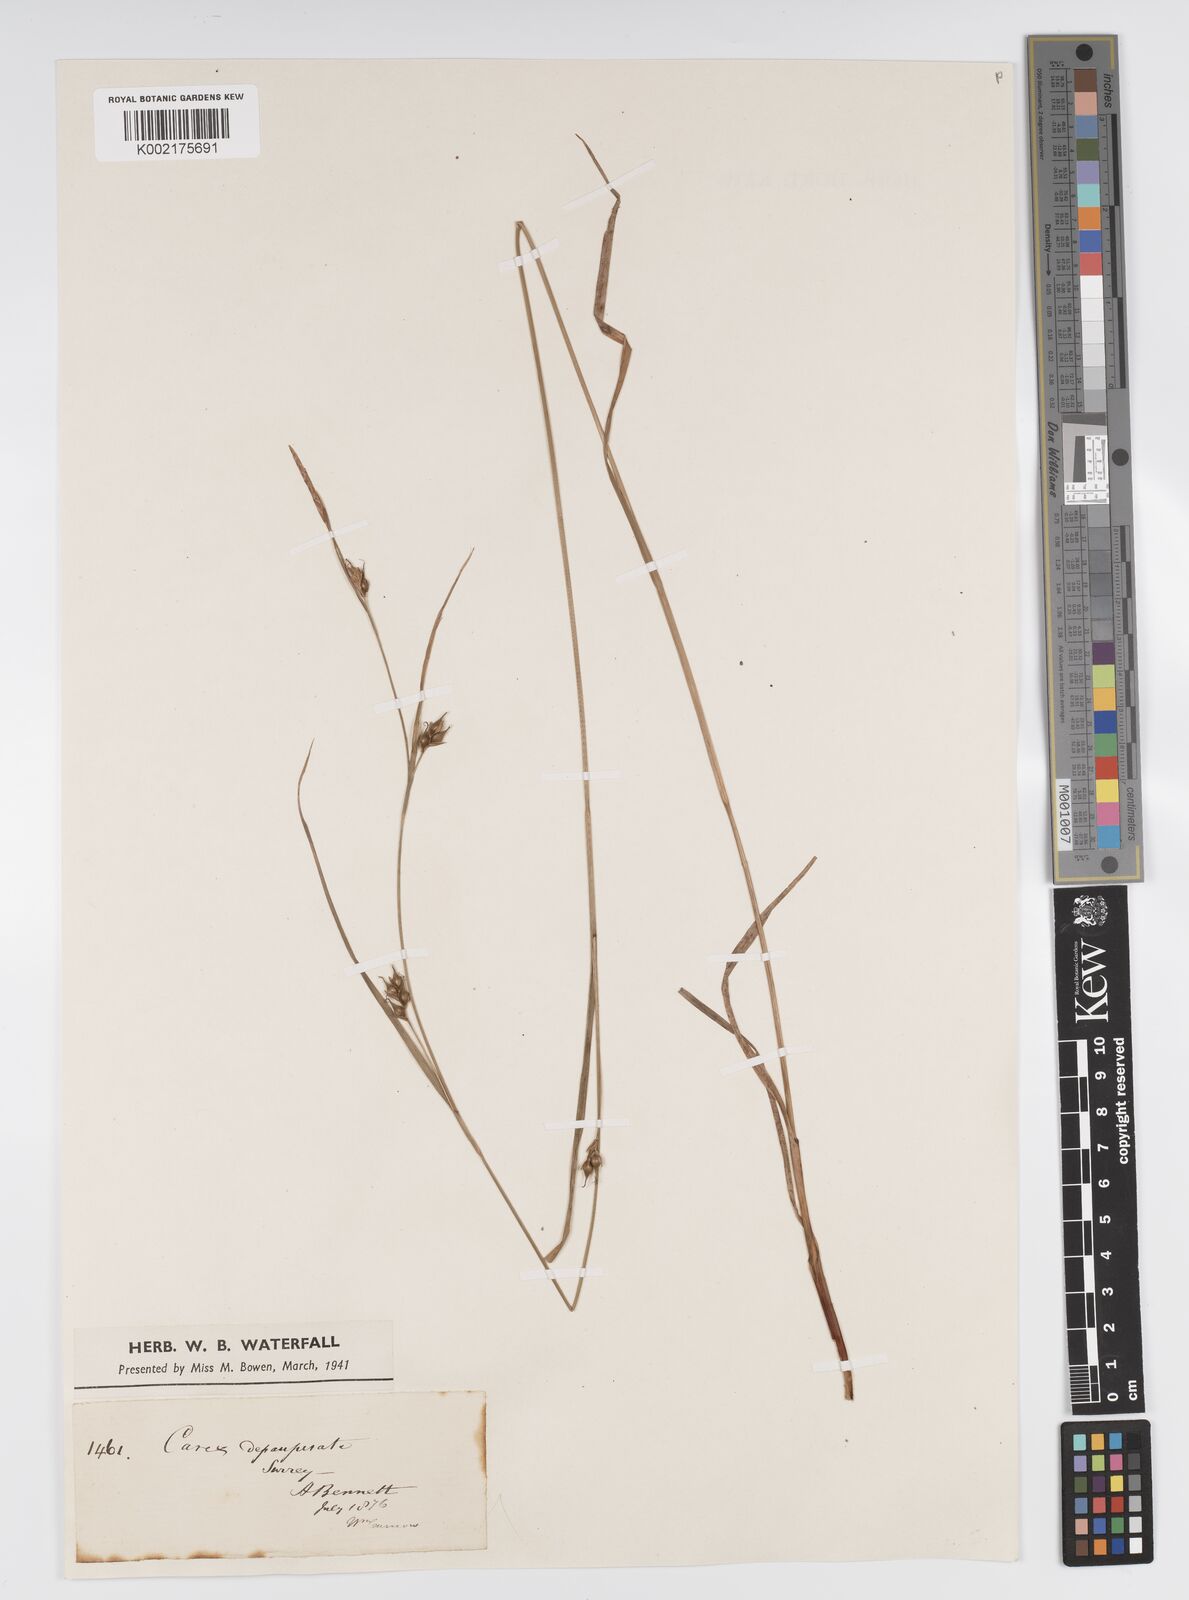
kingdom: Plantae
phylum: Tracheophyta
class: Liliopsida
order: Poales
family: Cyperaceae
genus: Carex
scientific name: Carex vaginata
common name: Sheathed sedge
